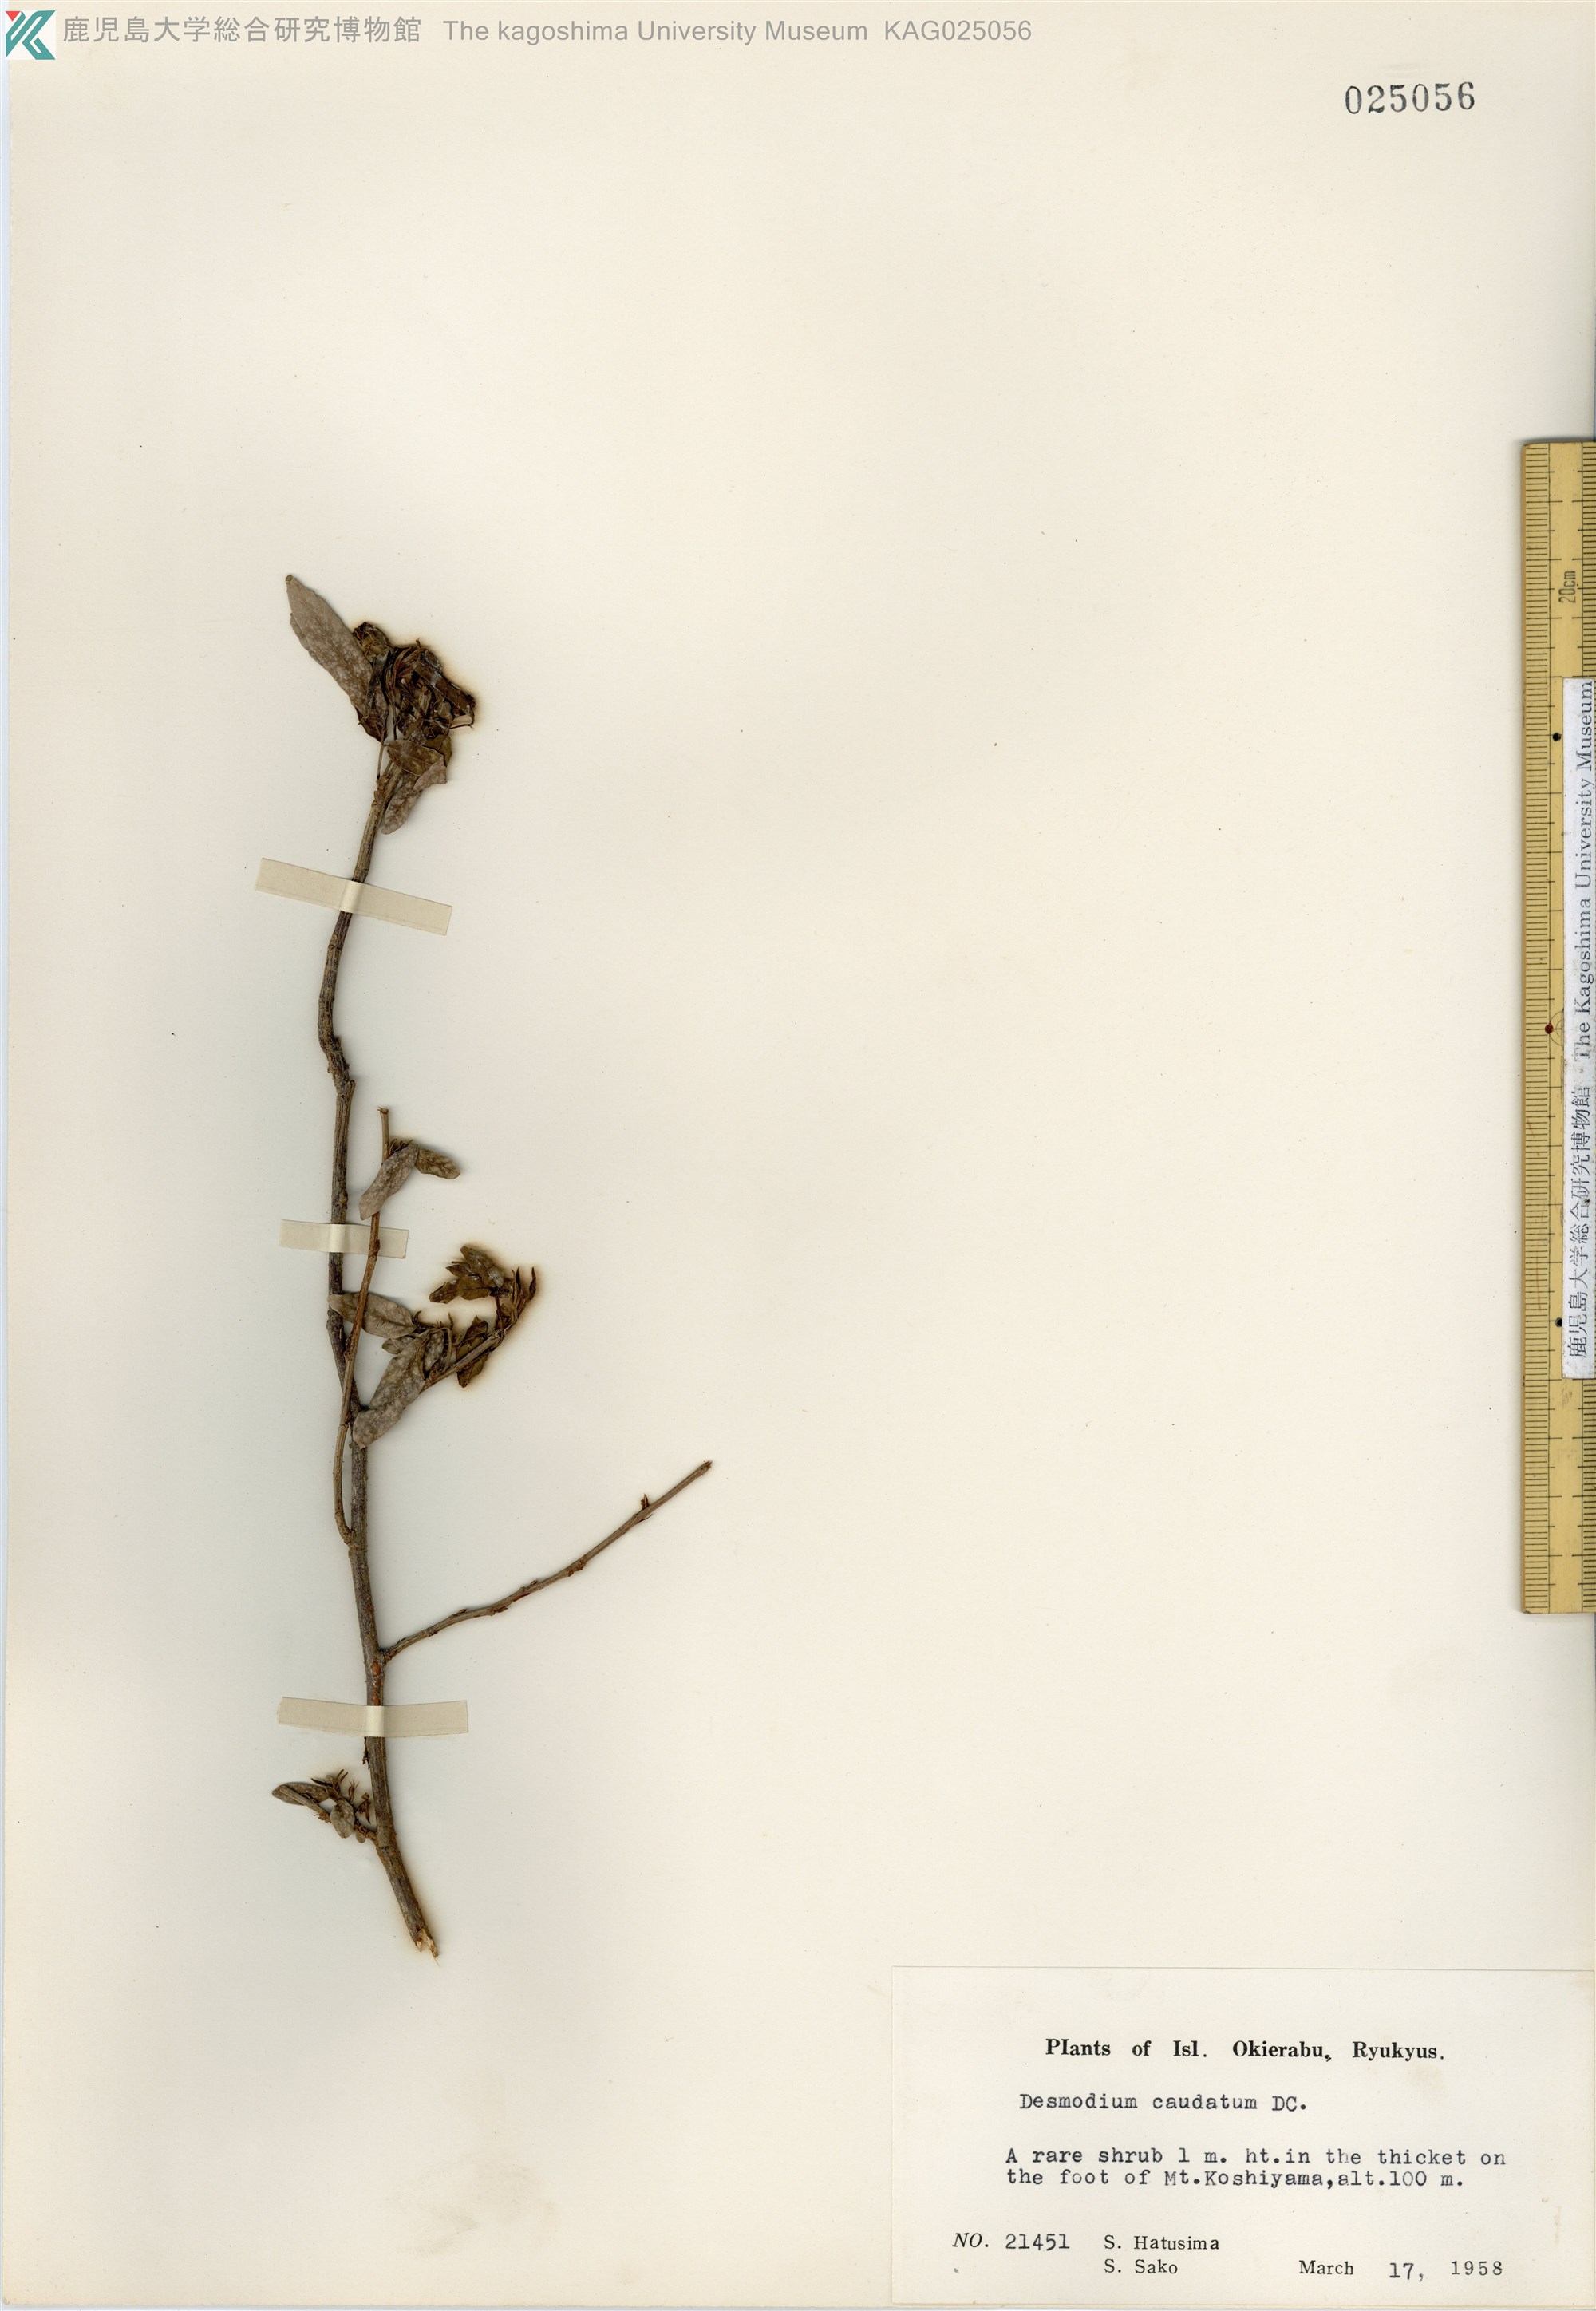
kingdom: Plantae
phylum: Tracheophyta
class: Magnoliopsida
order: Fabales
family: Fabaceae
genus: Ohwia
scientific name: Ohwia caudata
